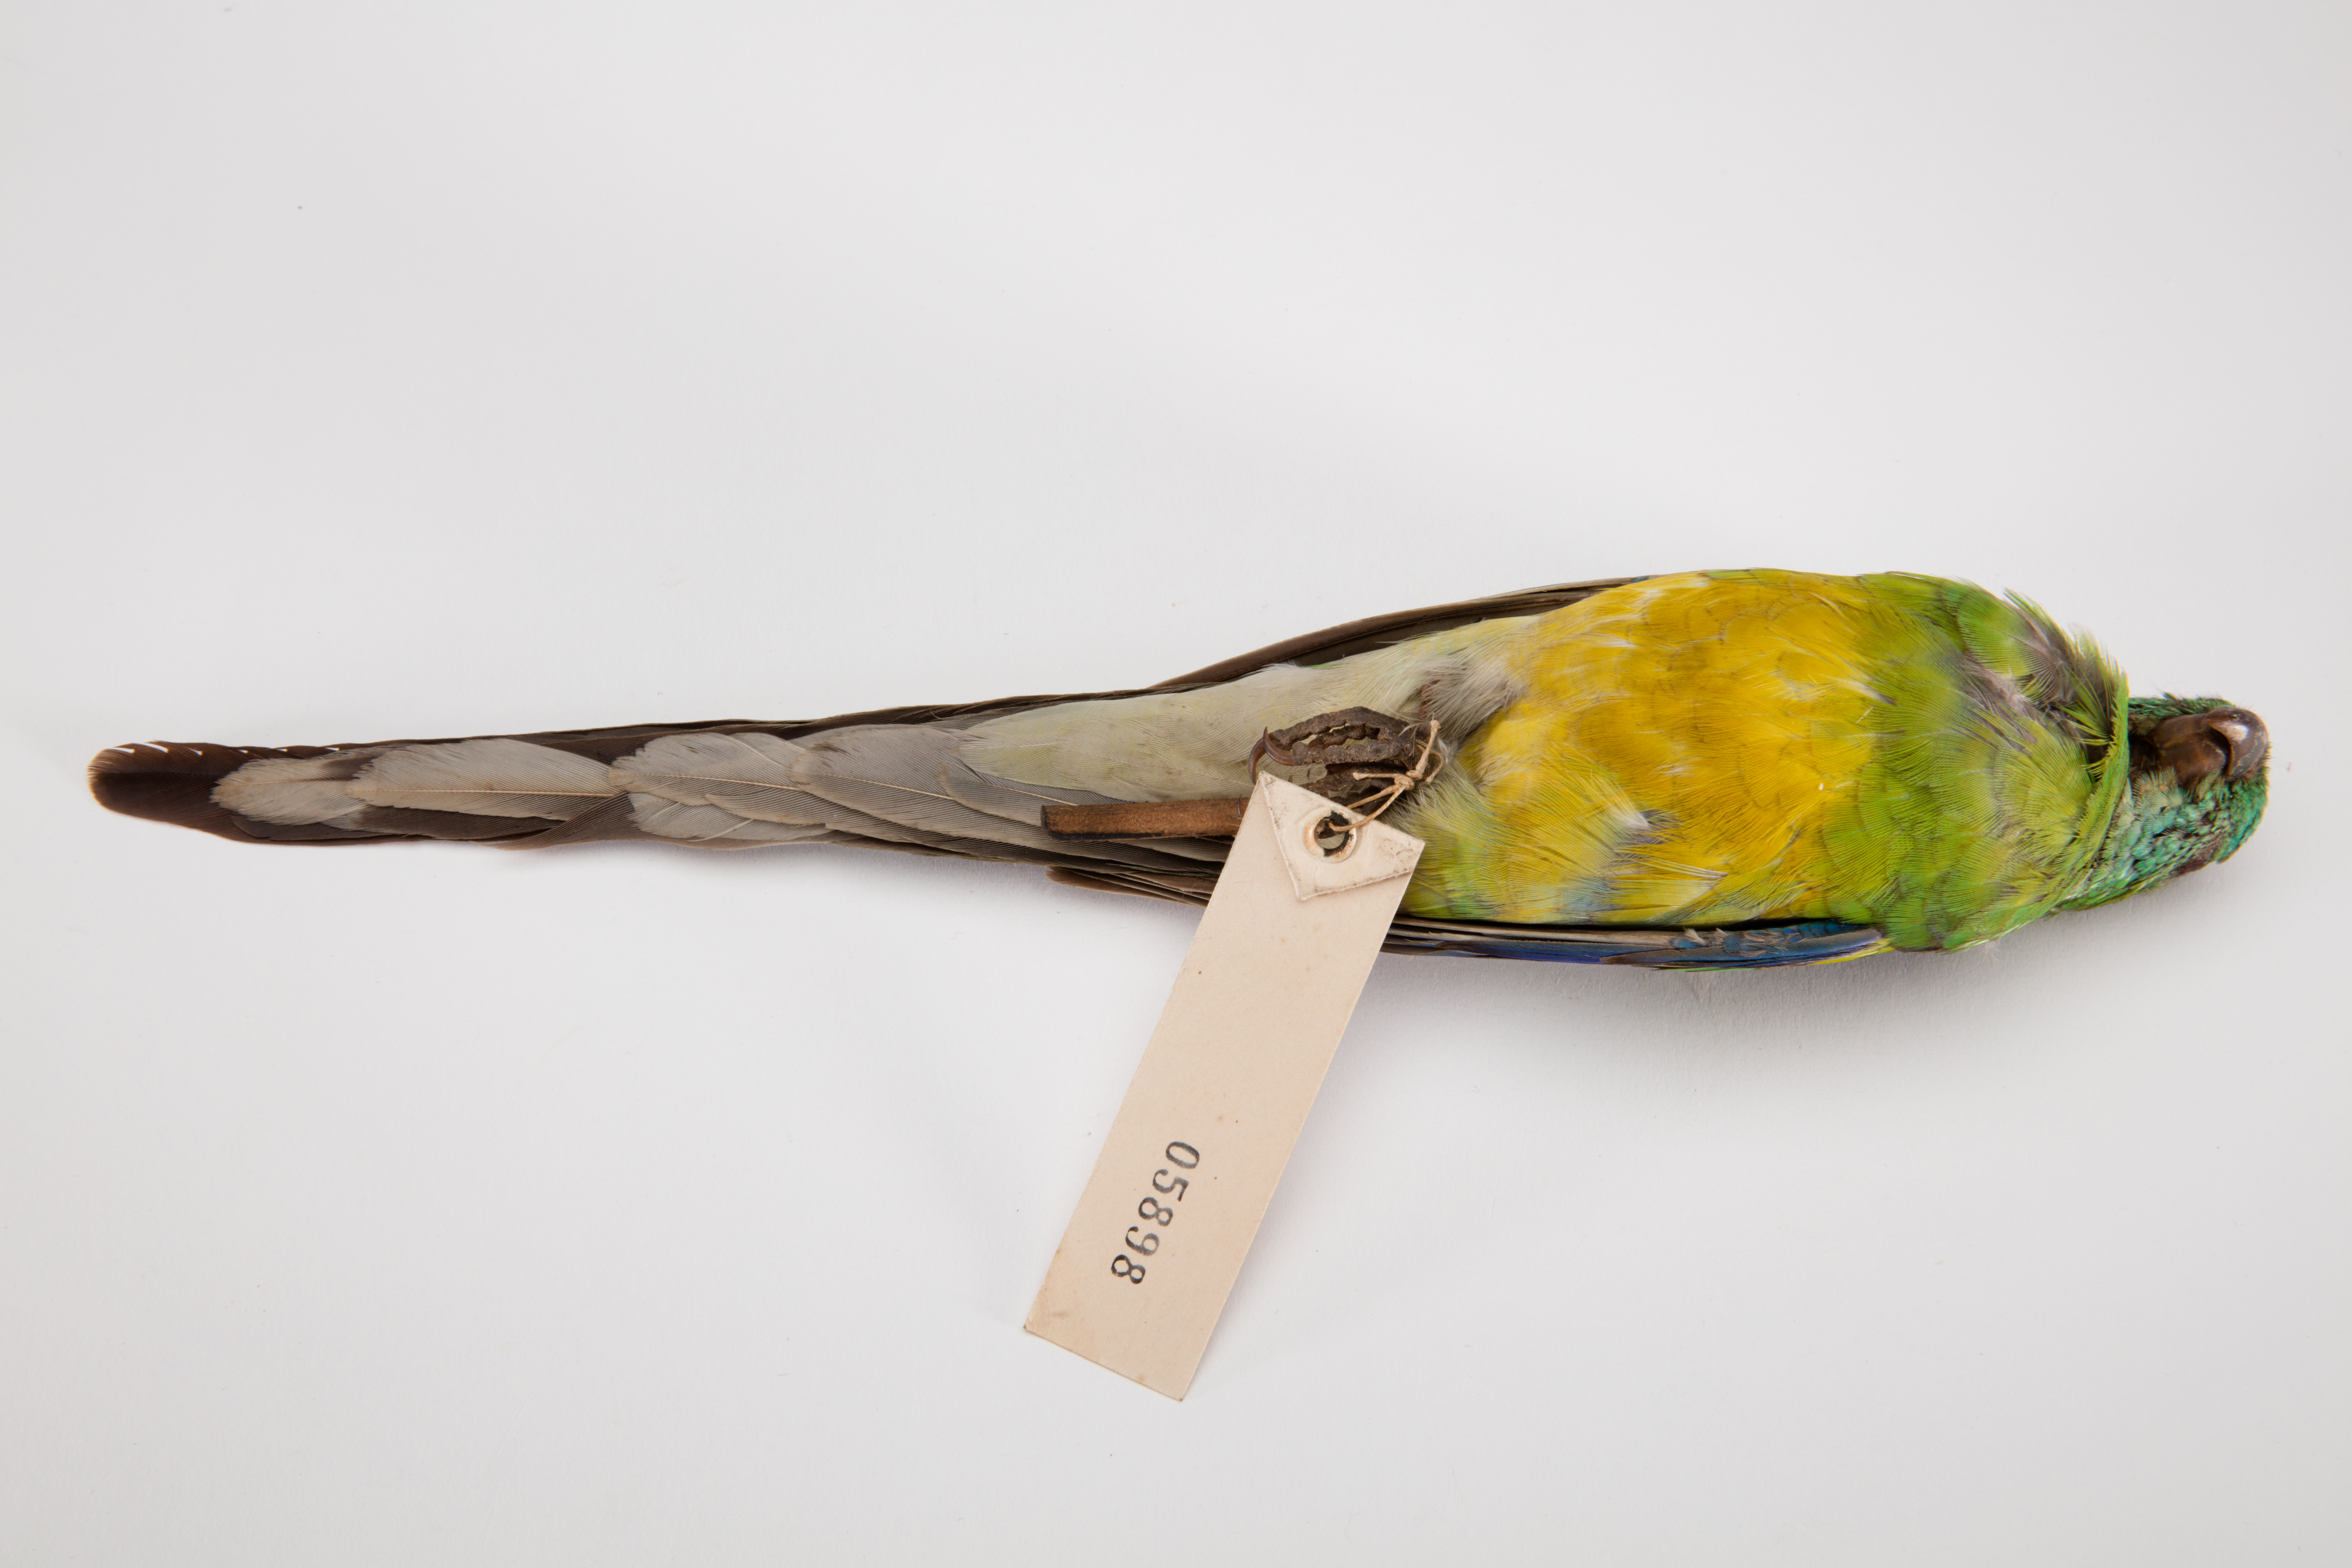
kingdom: Animalia
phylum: Chordata
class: Aves
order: Psittaciformes
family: Psittacidae
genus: Psephotus
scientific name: Psephotus haematonotus
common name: Red-rumped parrot
